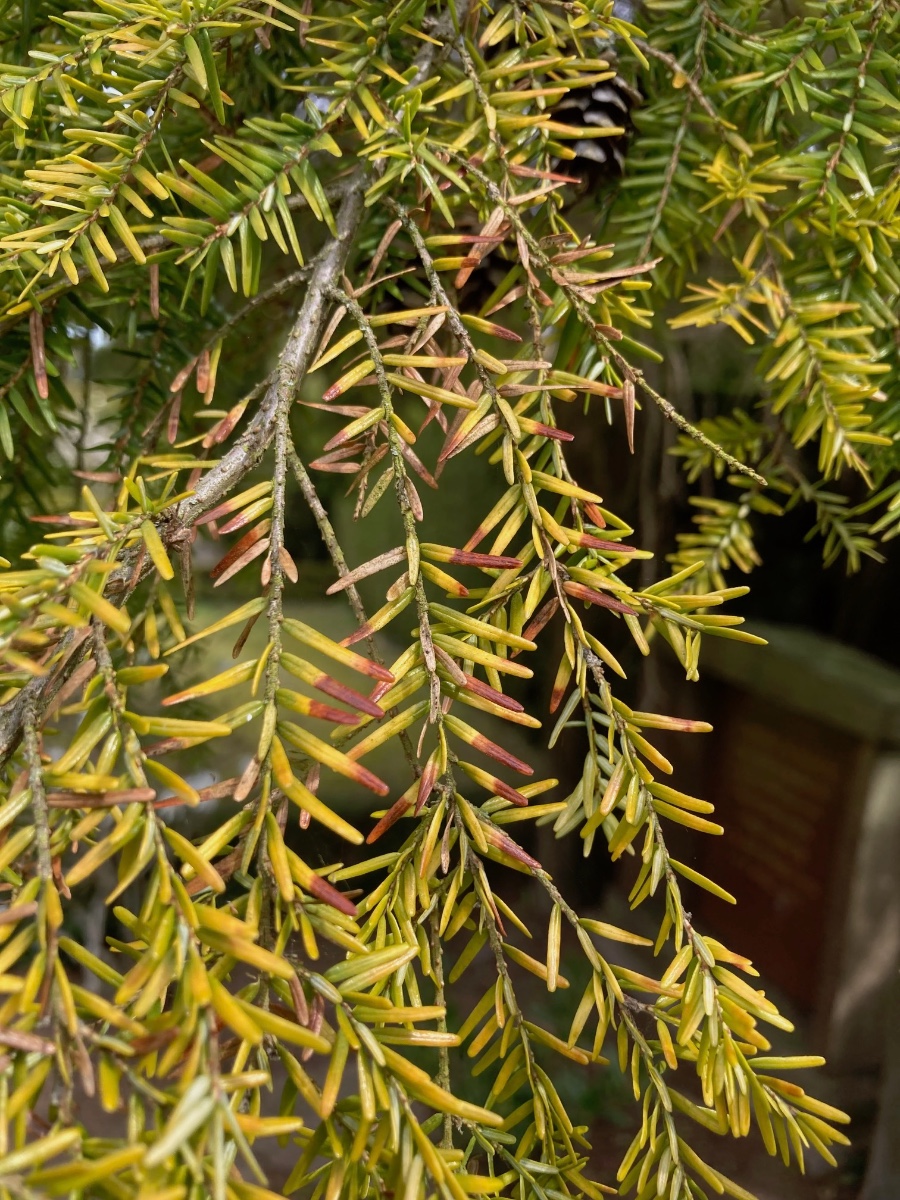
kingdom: Fungi
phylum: Ascomycota
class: Leotiomycetes
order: Helotiales
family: Cenangiaceae
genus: Fabrella
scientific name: Fabrella tsugae
